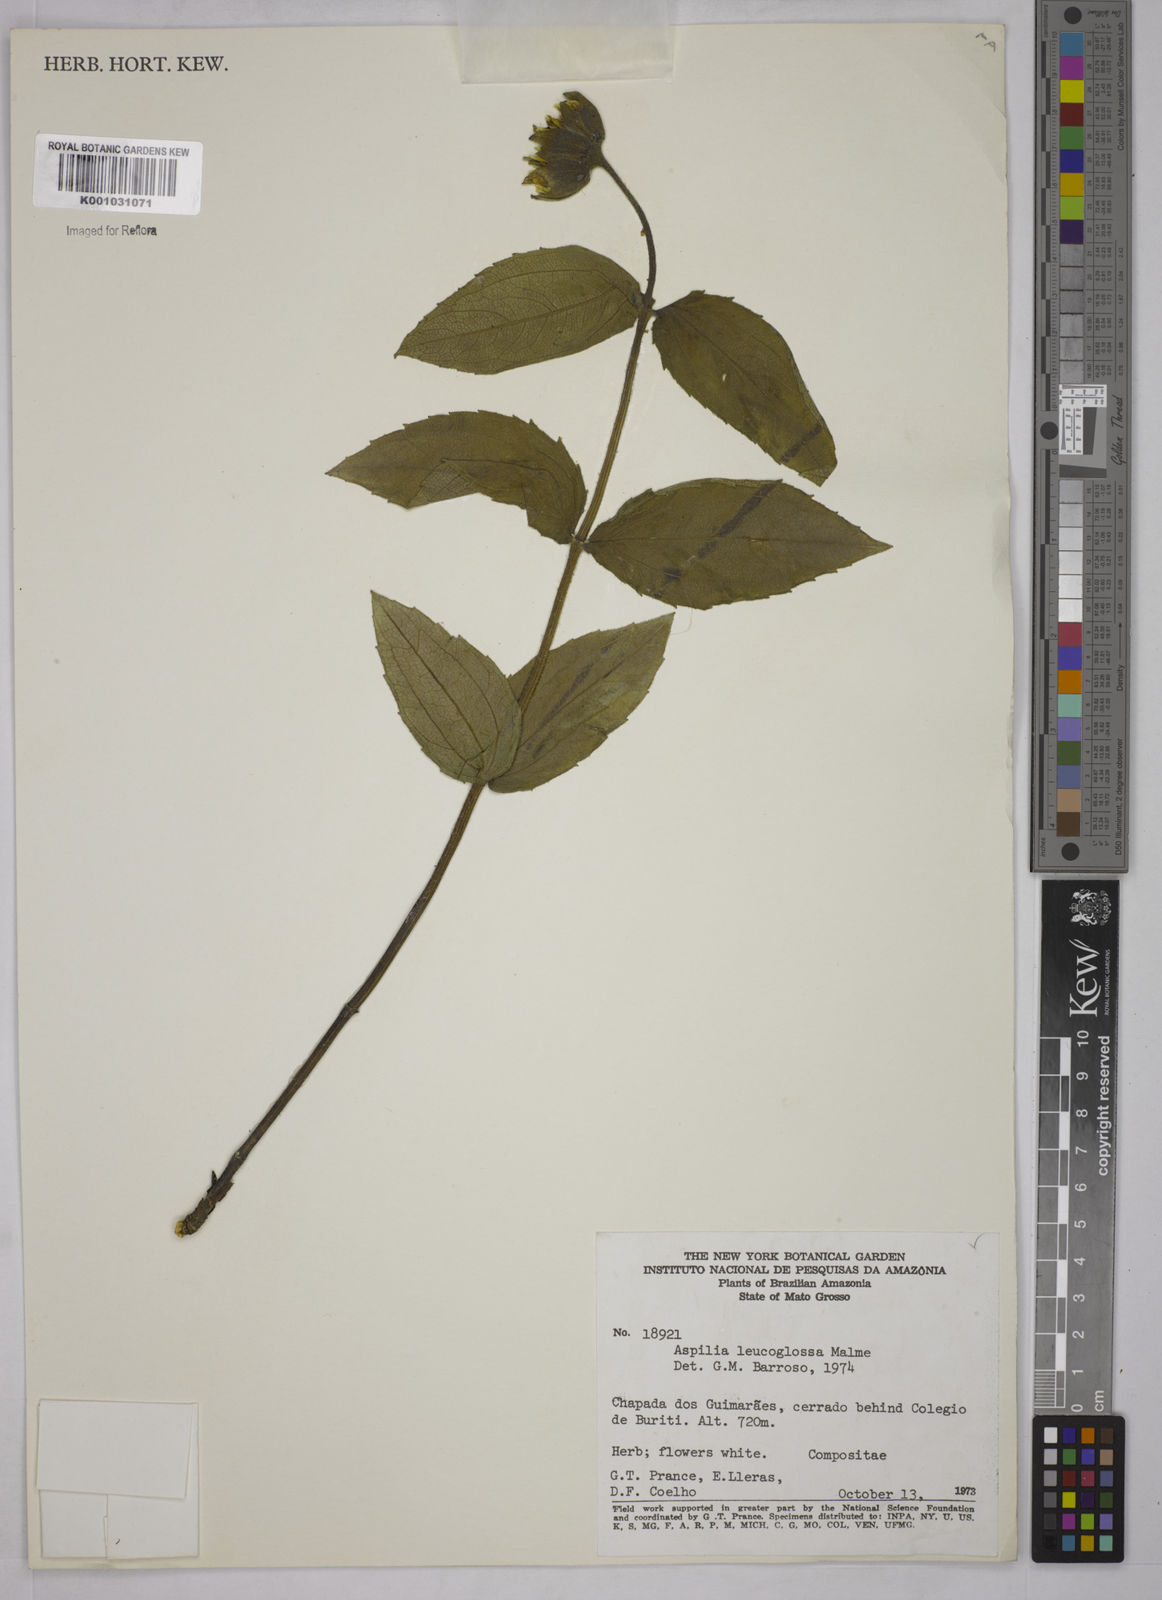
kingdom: Plantae
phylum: Tracheophyta
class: Magnoliopsida
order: Asterales
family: Asteraceae
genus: Wedelia
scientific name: Wedelia leucoglossa
